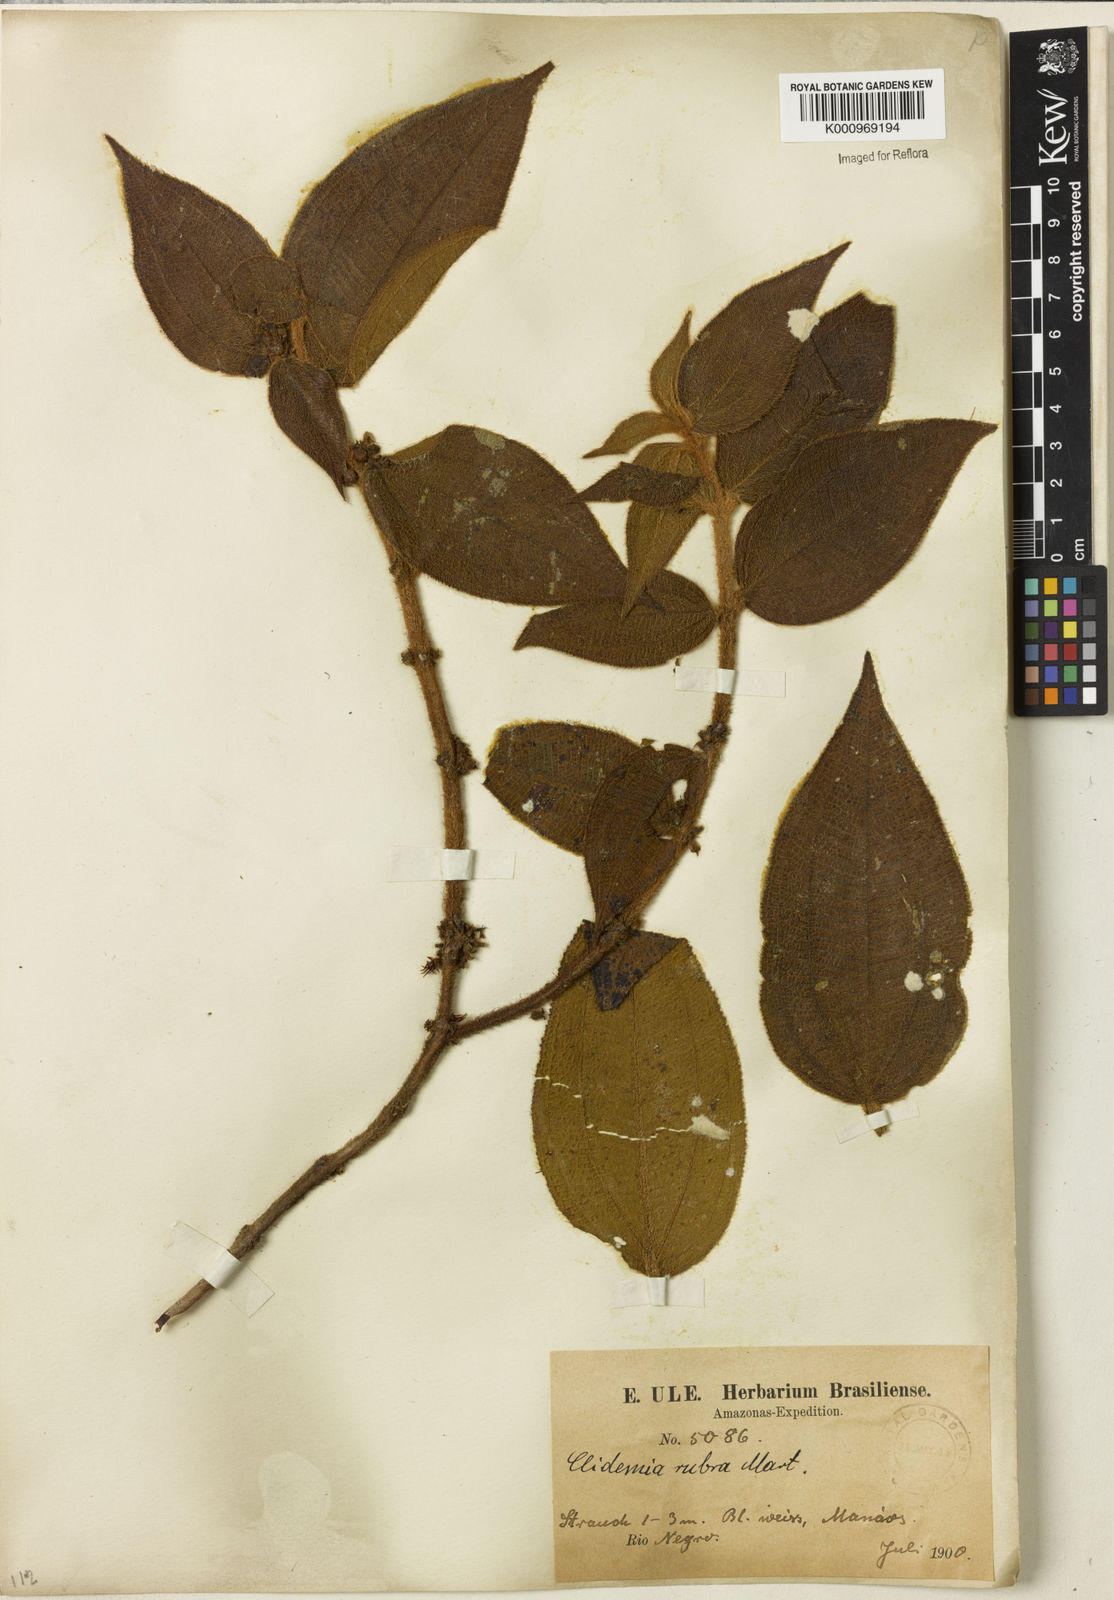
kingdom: Plantae
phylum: Tracheophyta
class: Magnoliopsida
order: Myrtales
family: Melastomataceae
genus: Miconia
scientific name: Miconia rubra
